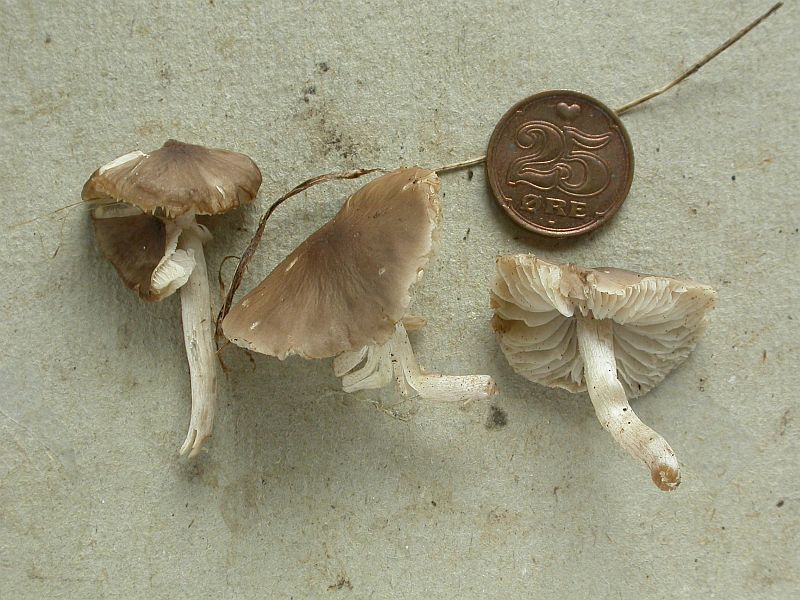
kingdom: Fungi
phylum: Basidiomycota
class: Agaricomycetes
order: Agaricales
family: Tricholomataceae
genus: Dermoloma
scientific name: Dermoloma cuneifolium
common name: eng-nonnehat
